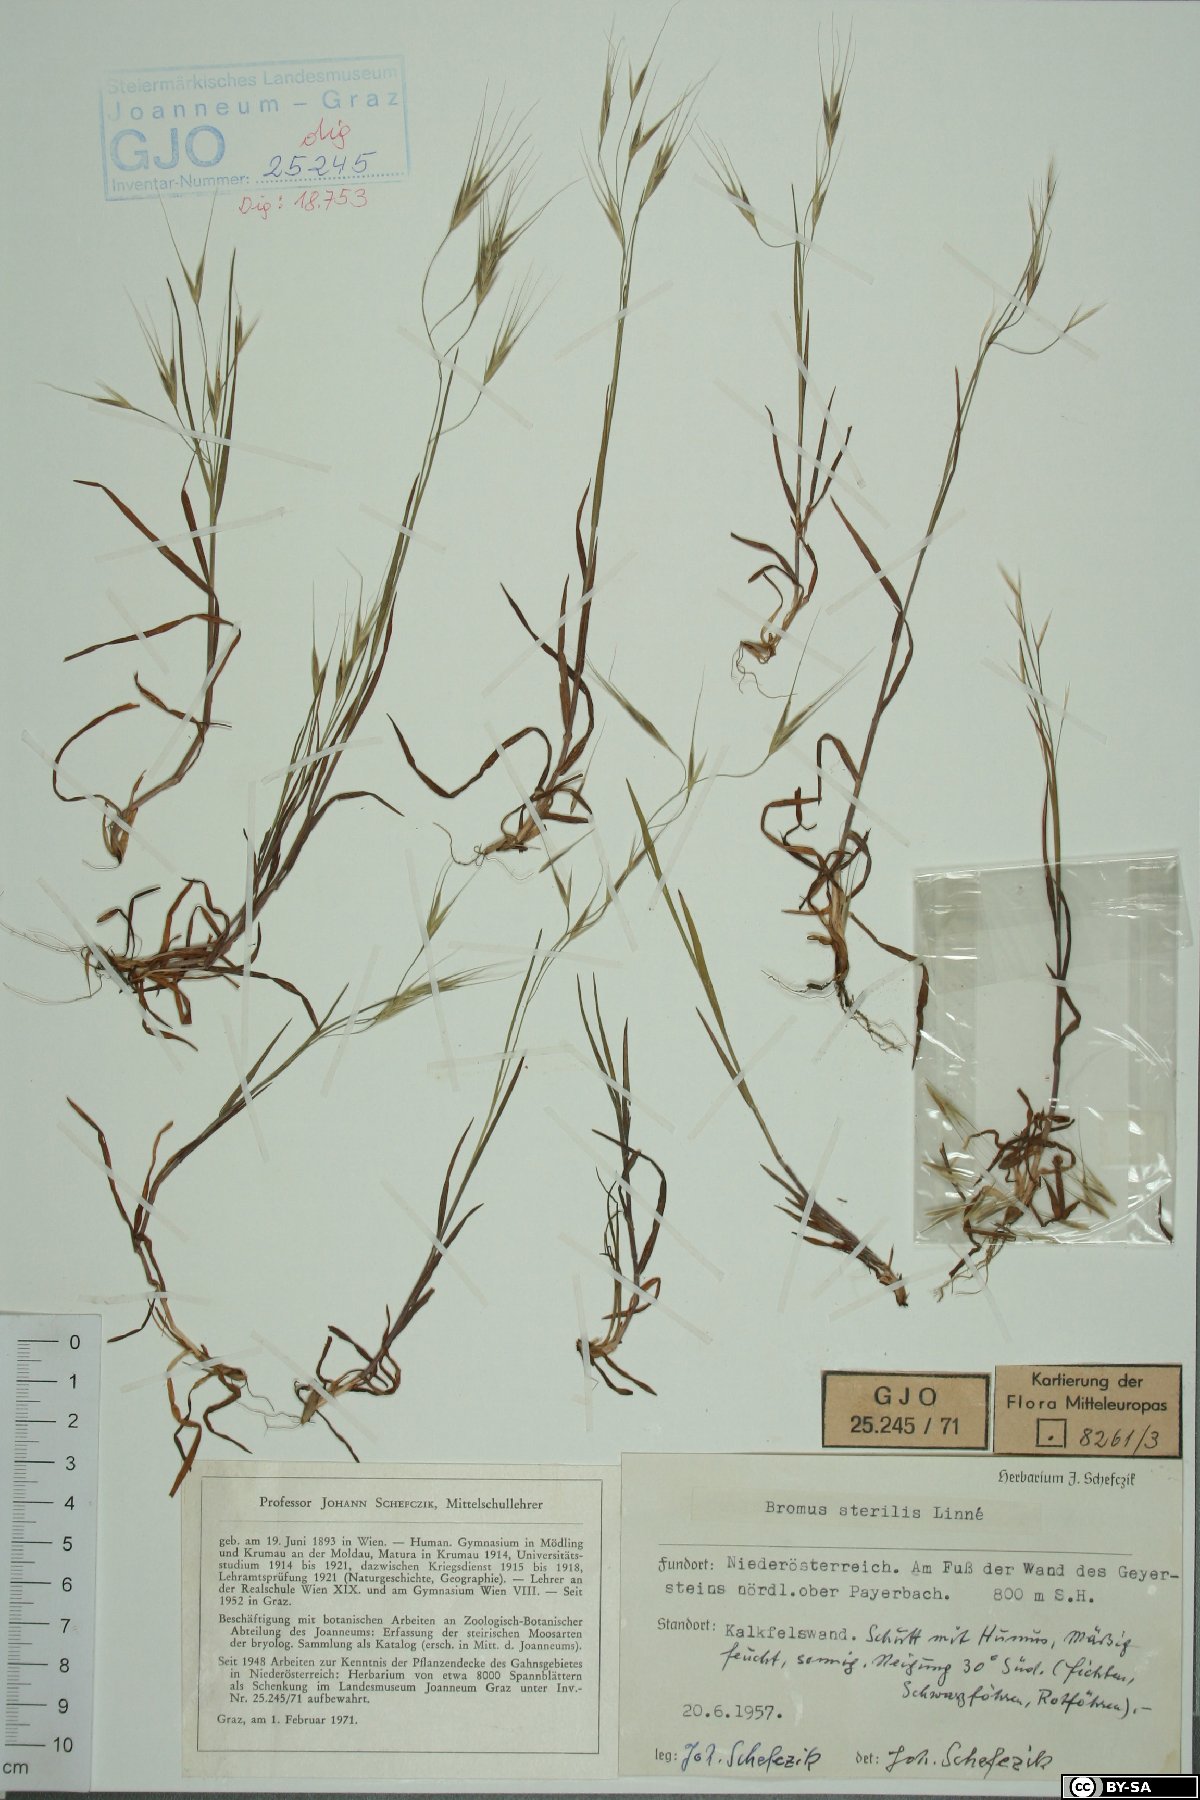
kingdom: Plantae
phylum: Tracheophyta
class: Liliopsida
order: Poales
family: Poaceae
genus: Bromus
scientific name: Bromus sterilis
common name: Poverty brome
